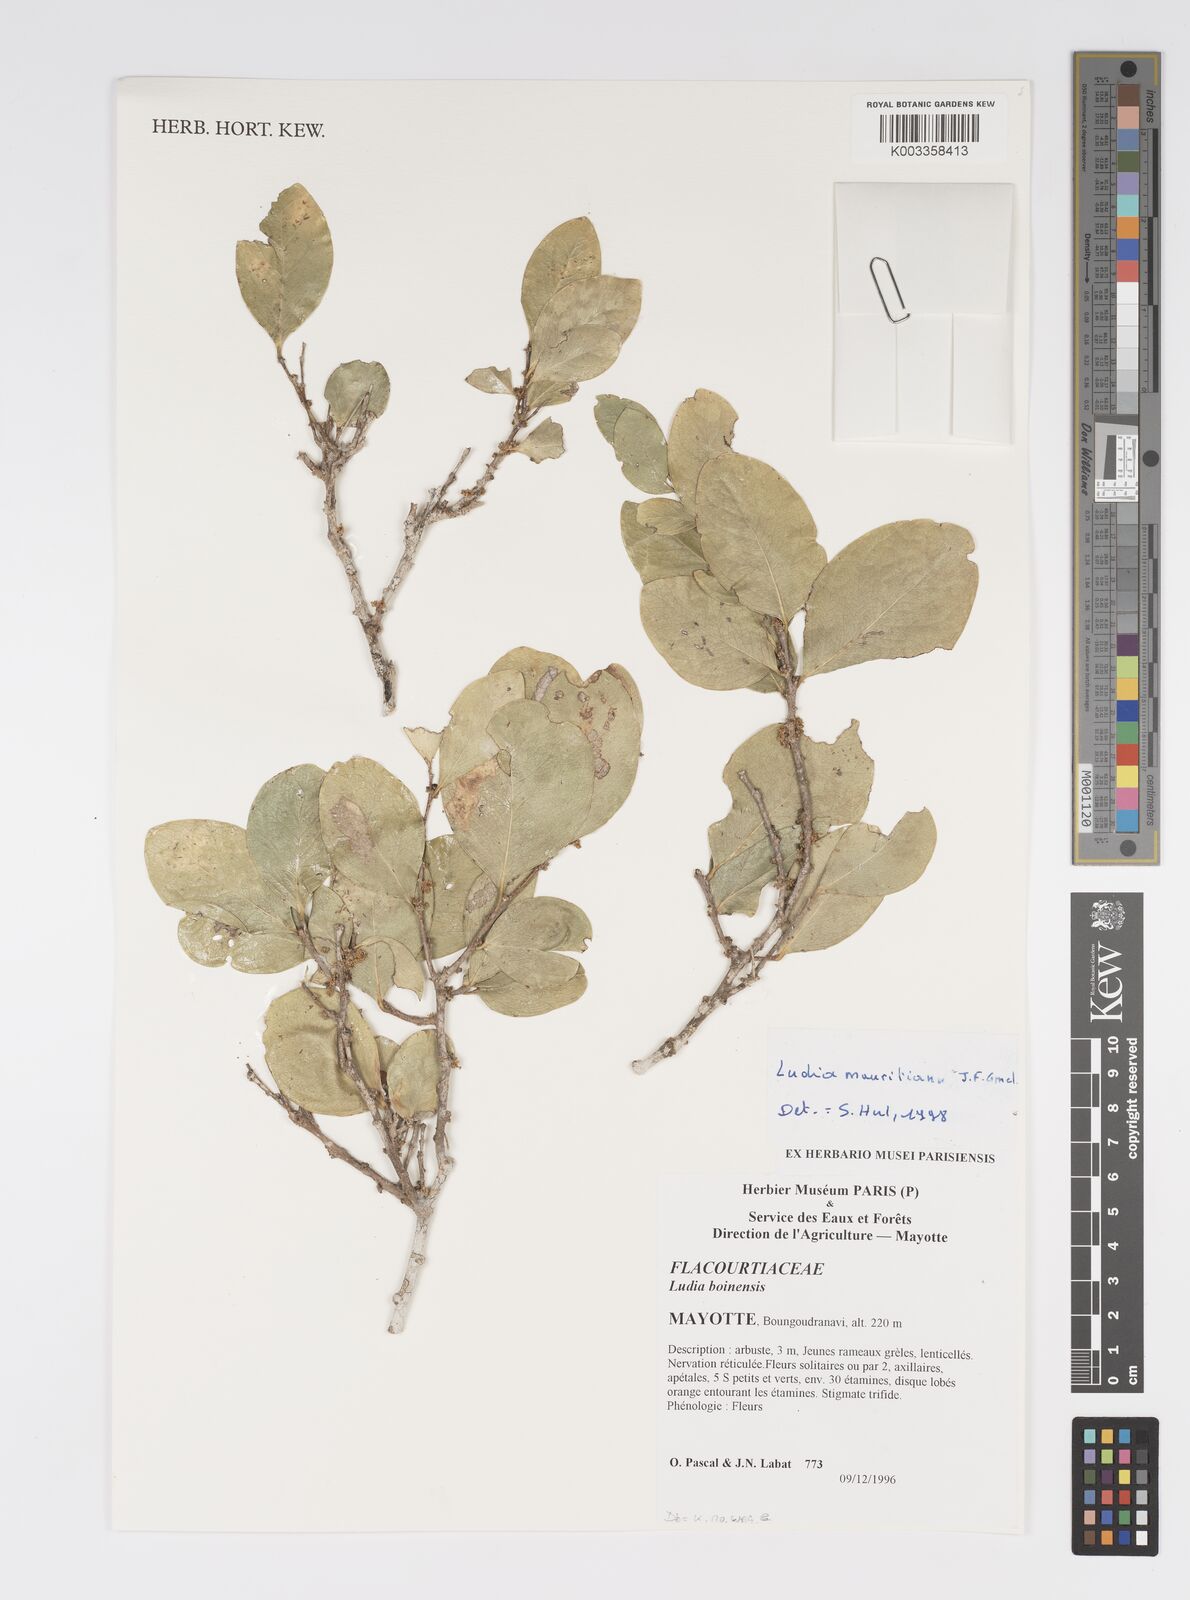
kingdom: Plantae
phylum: Tracheophyta
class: Magnoliopsida
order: Malpighiales
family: Salicaceae
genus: Ludia
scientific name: Ludia mauritiana
